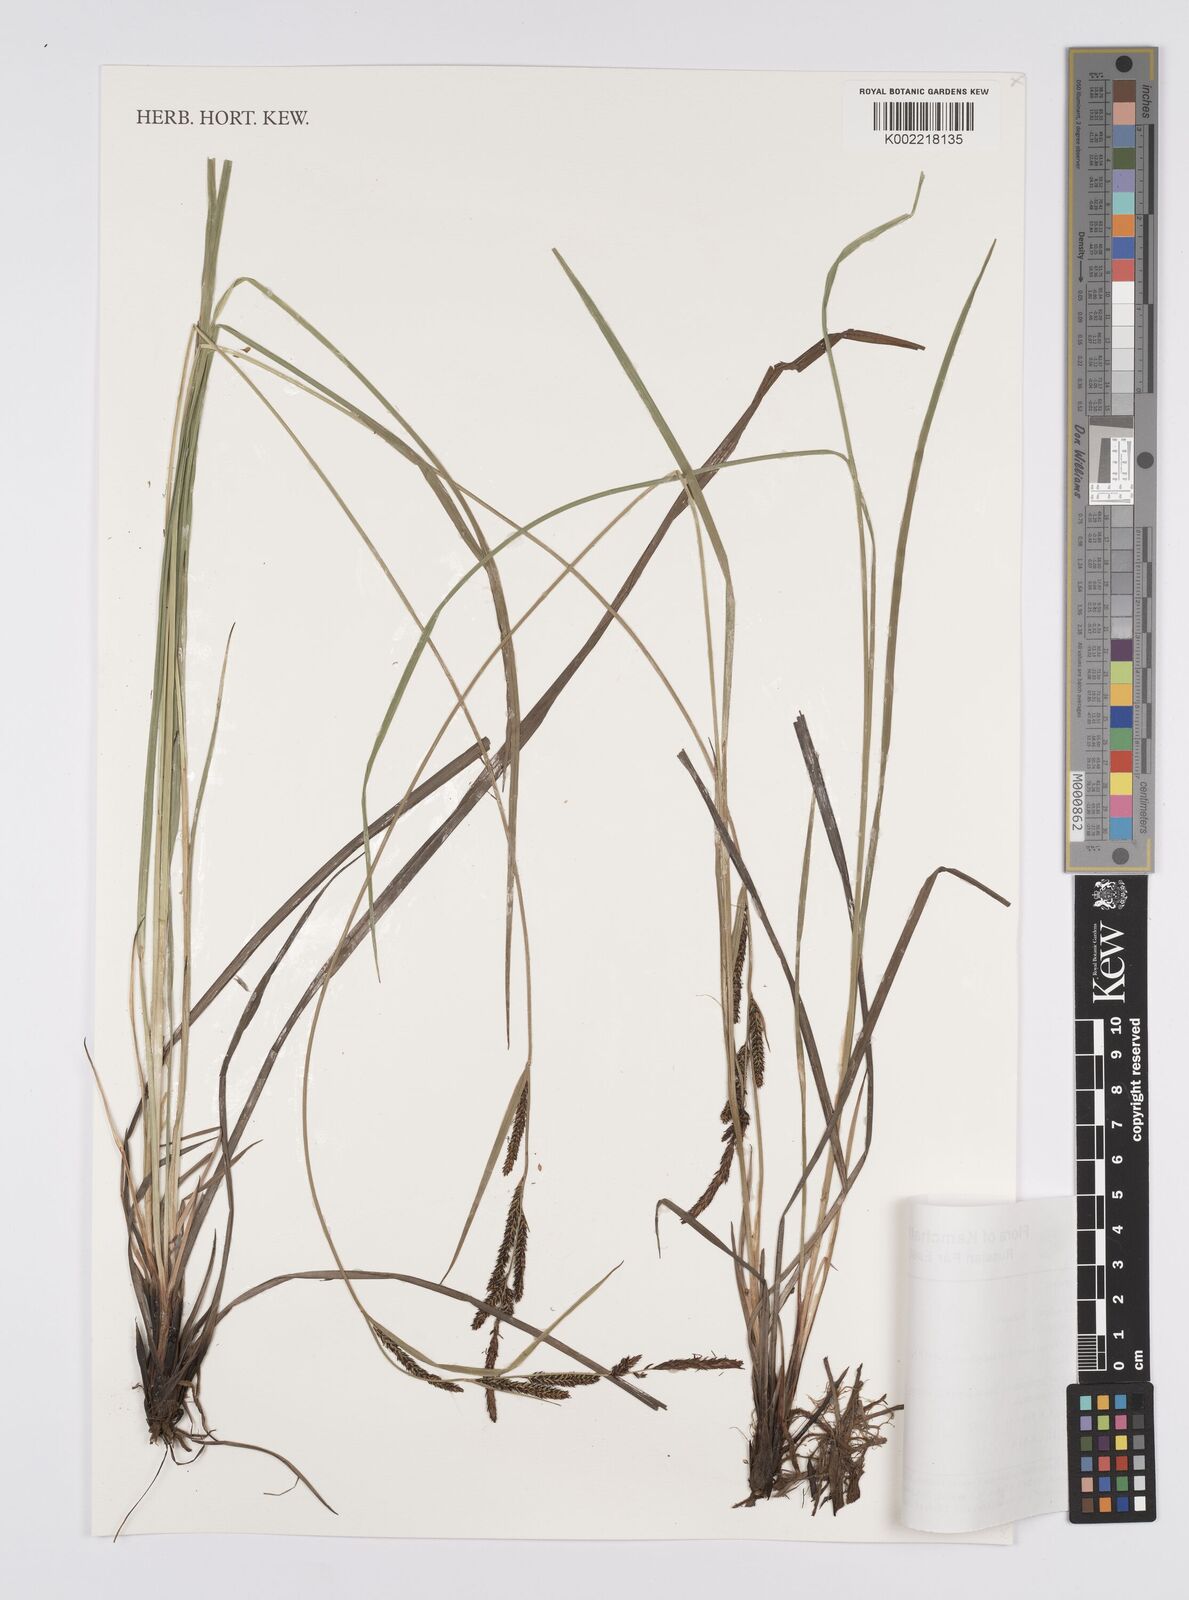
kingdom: Plantae
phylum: Tracheophyta
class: Liliopsida
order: Poales
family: Cyperaceae
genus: Carex
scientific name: Carex aquatilis
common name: Water sedge
